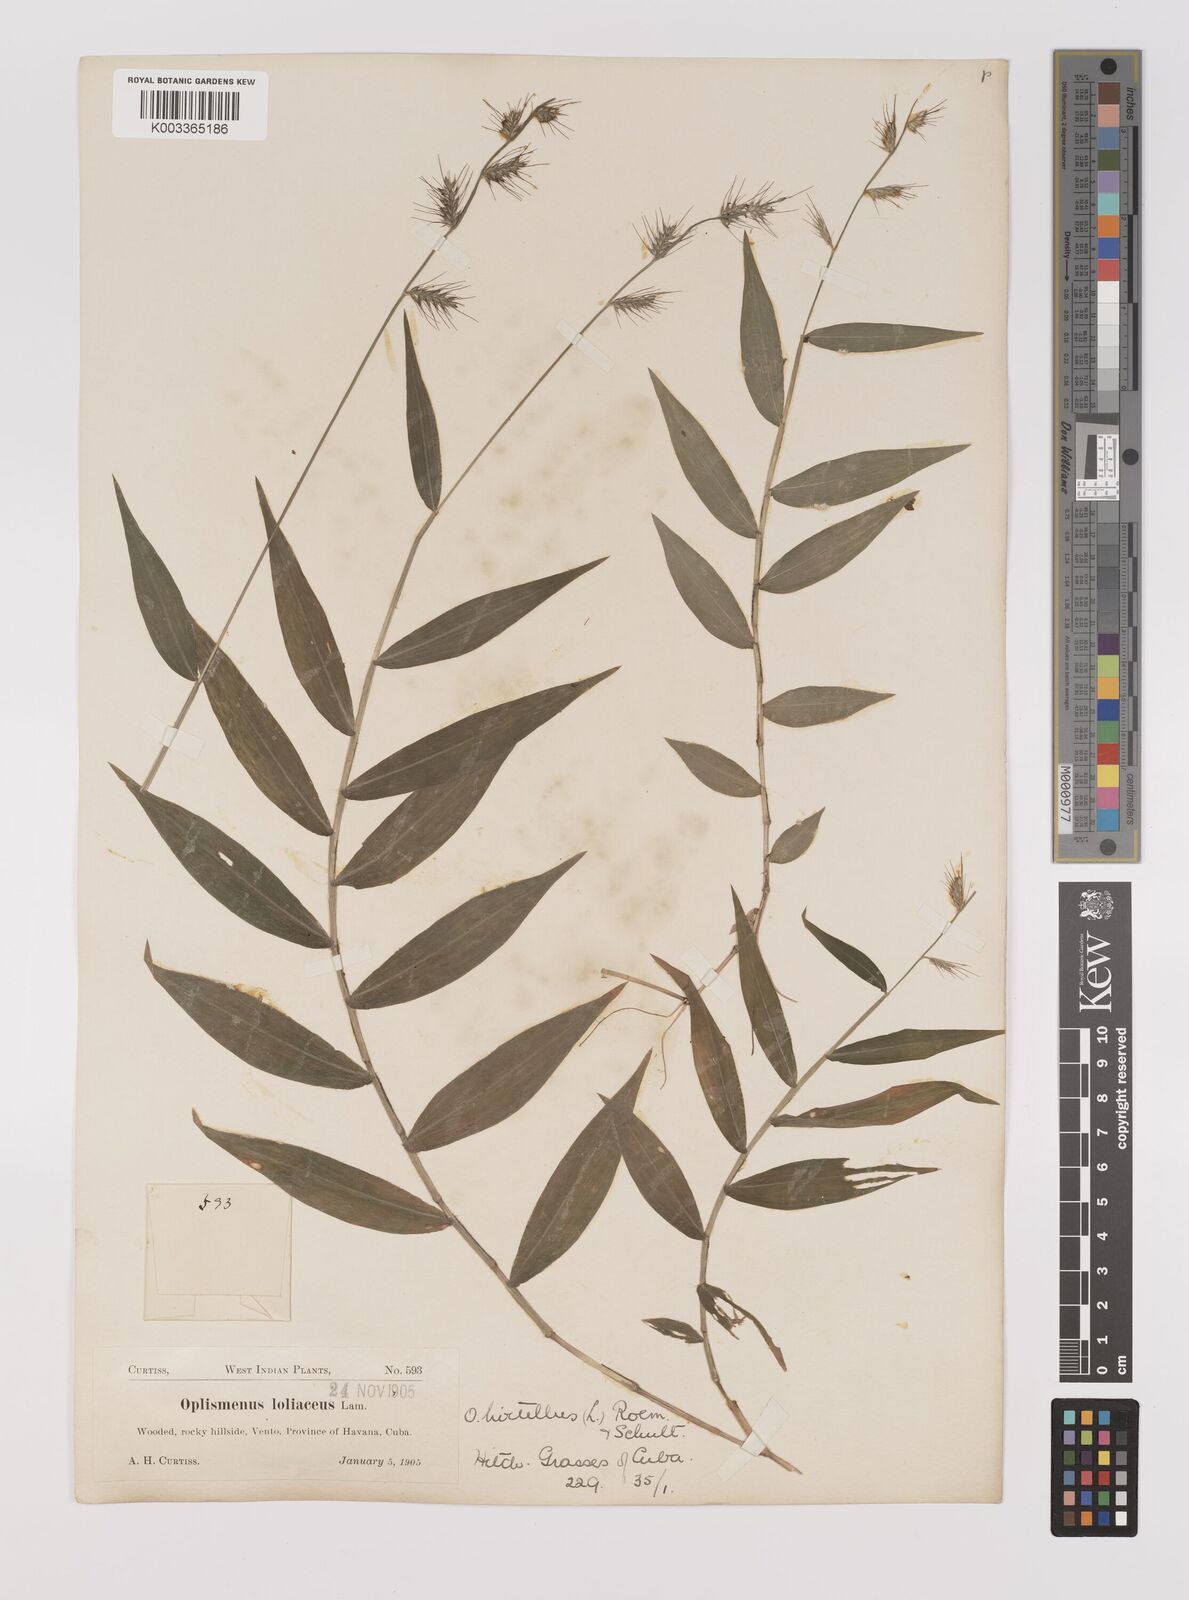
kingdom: Plantae
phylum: Tracheophyta
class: Liliopsida
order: Poales
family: Poaceae
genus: Oplismenus
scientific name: Oplismenus hirtellus
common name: Basketgrass
